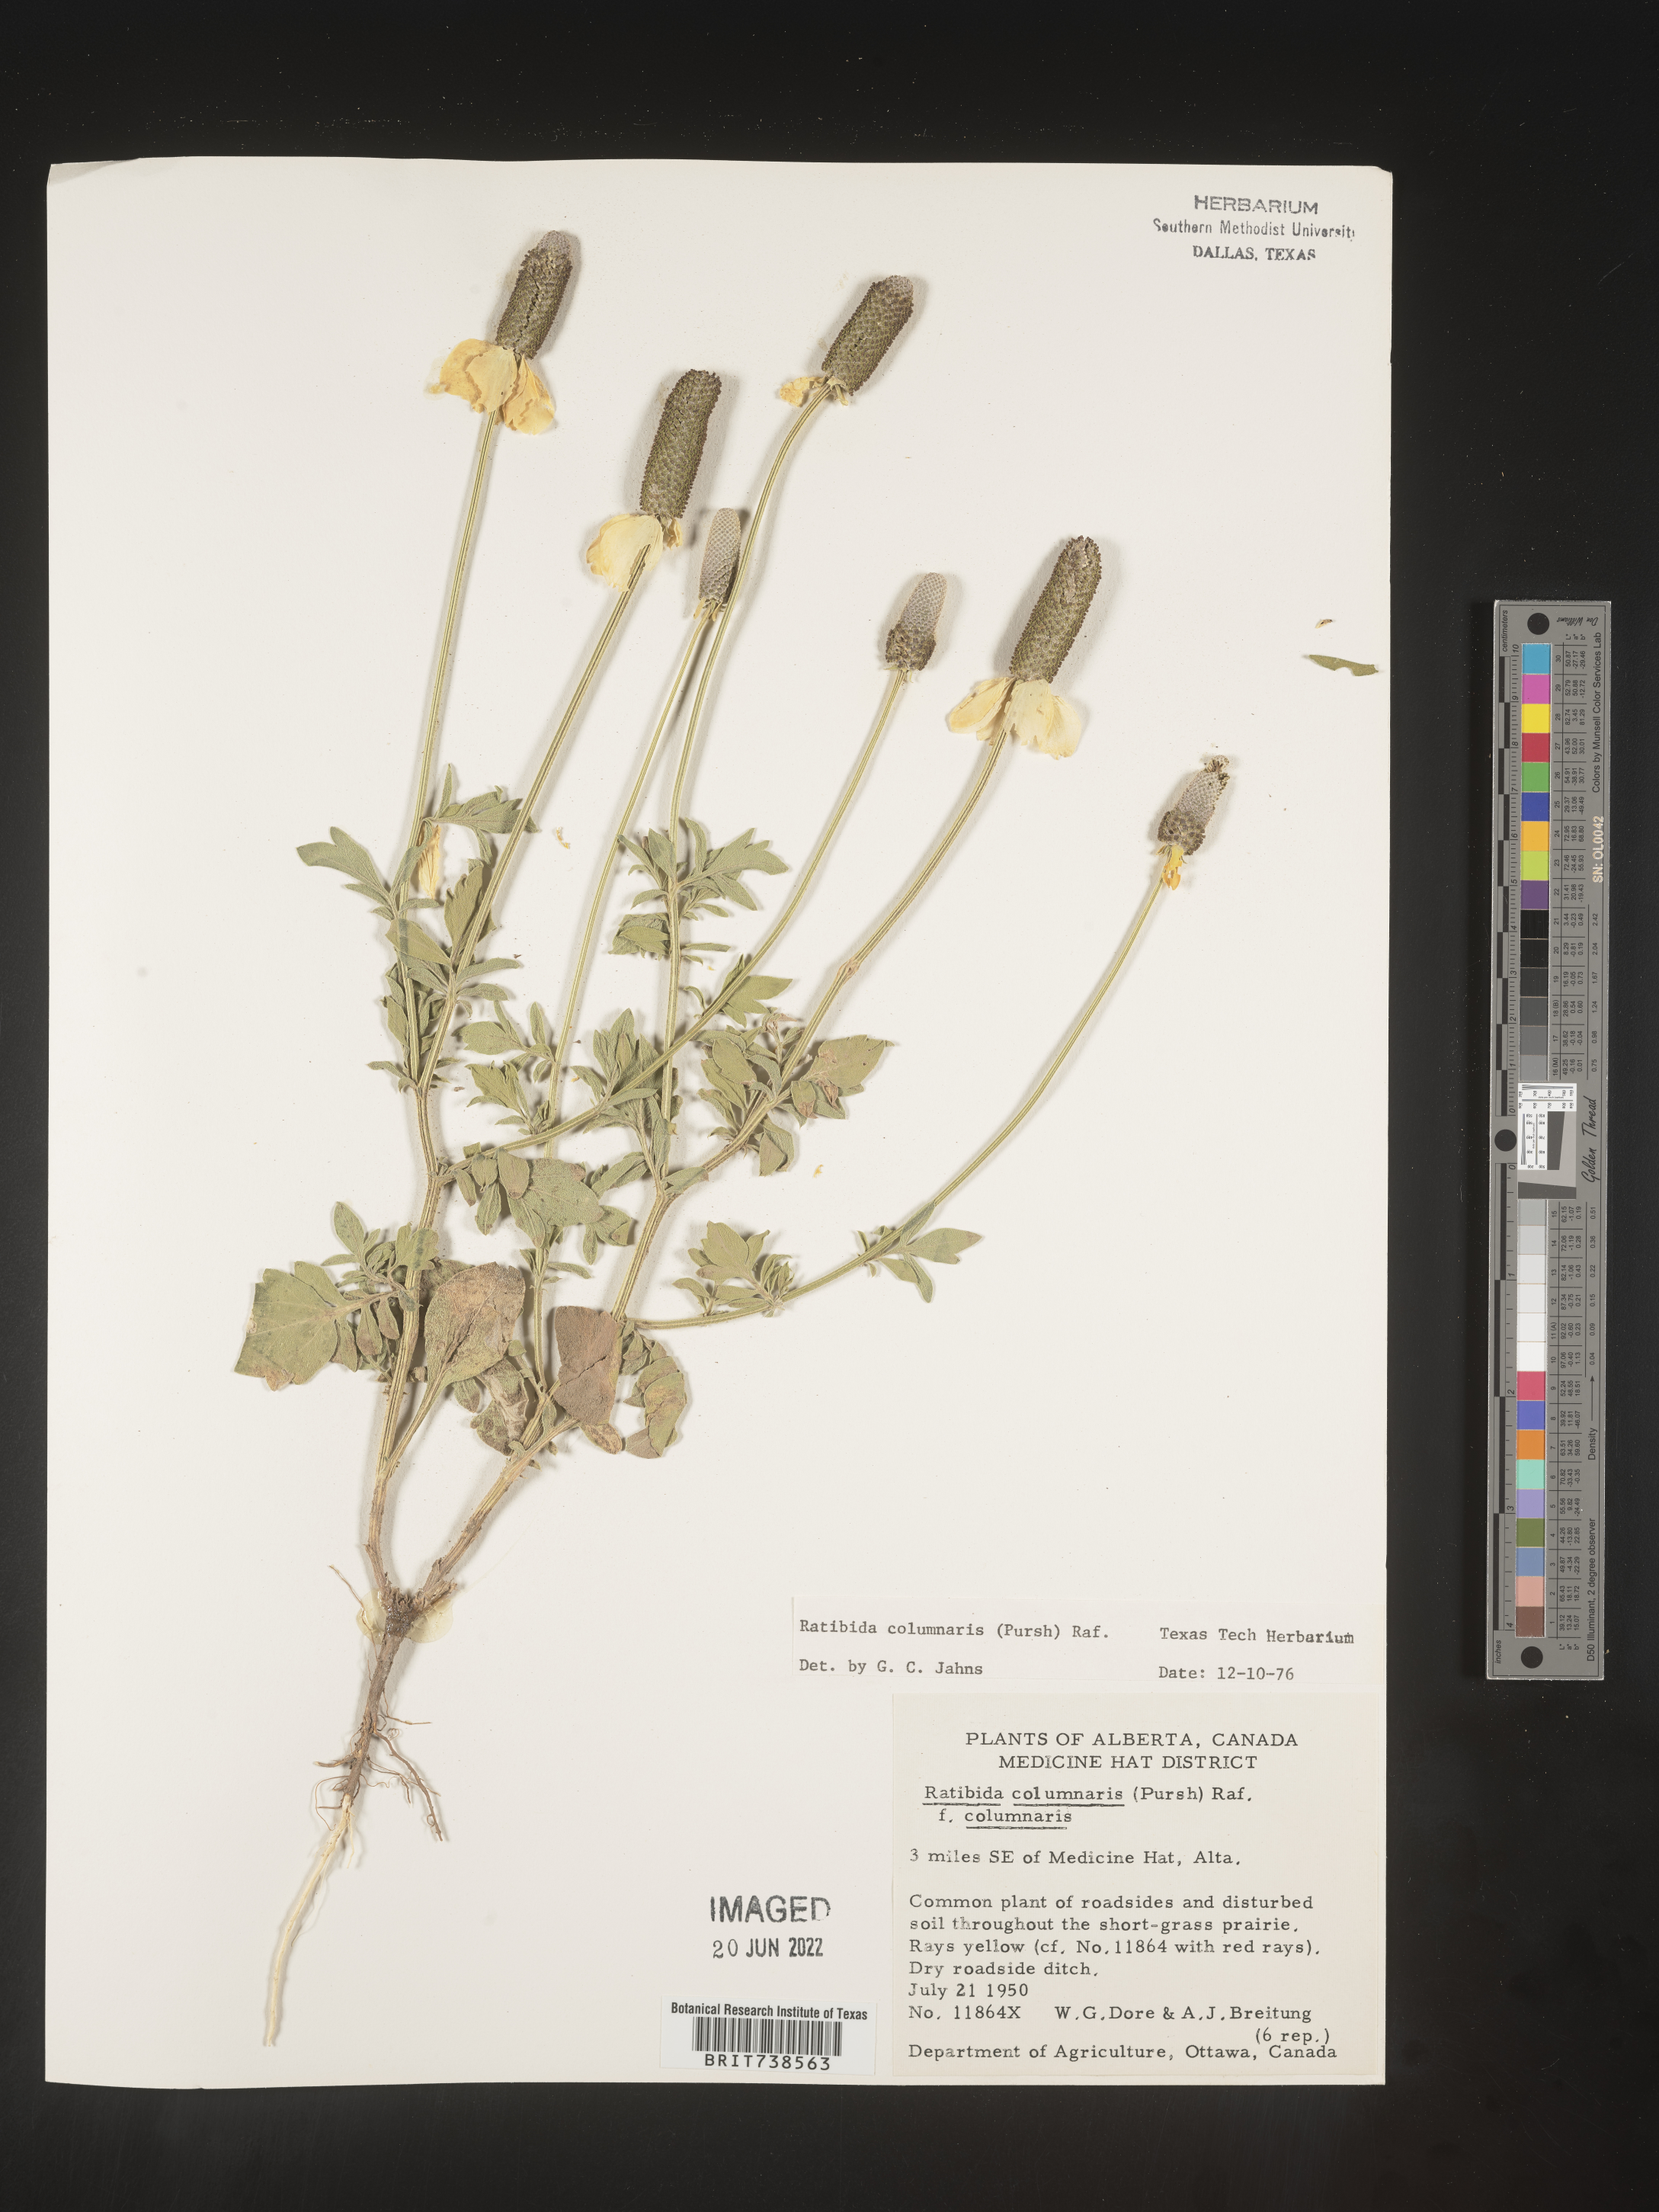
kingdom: Plantae
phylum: Tracheophyta
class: Magnoliopsida
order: Asterales
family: Asteraceae
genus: Ratibida
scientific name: Ratibida columnifera
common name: Prairie coneflower
